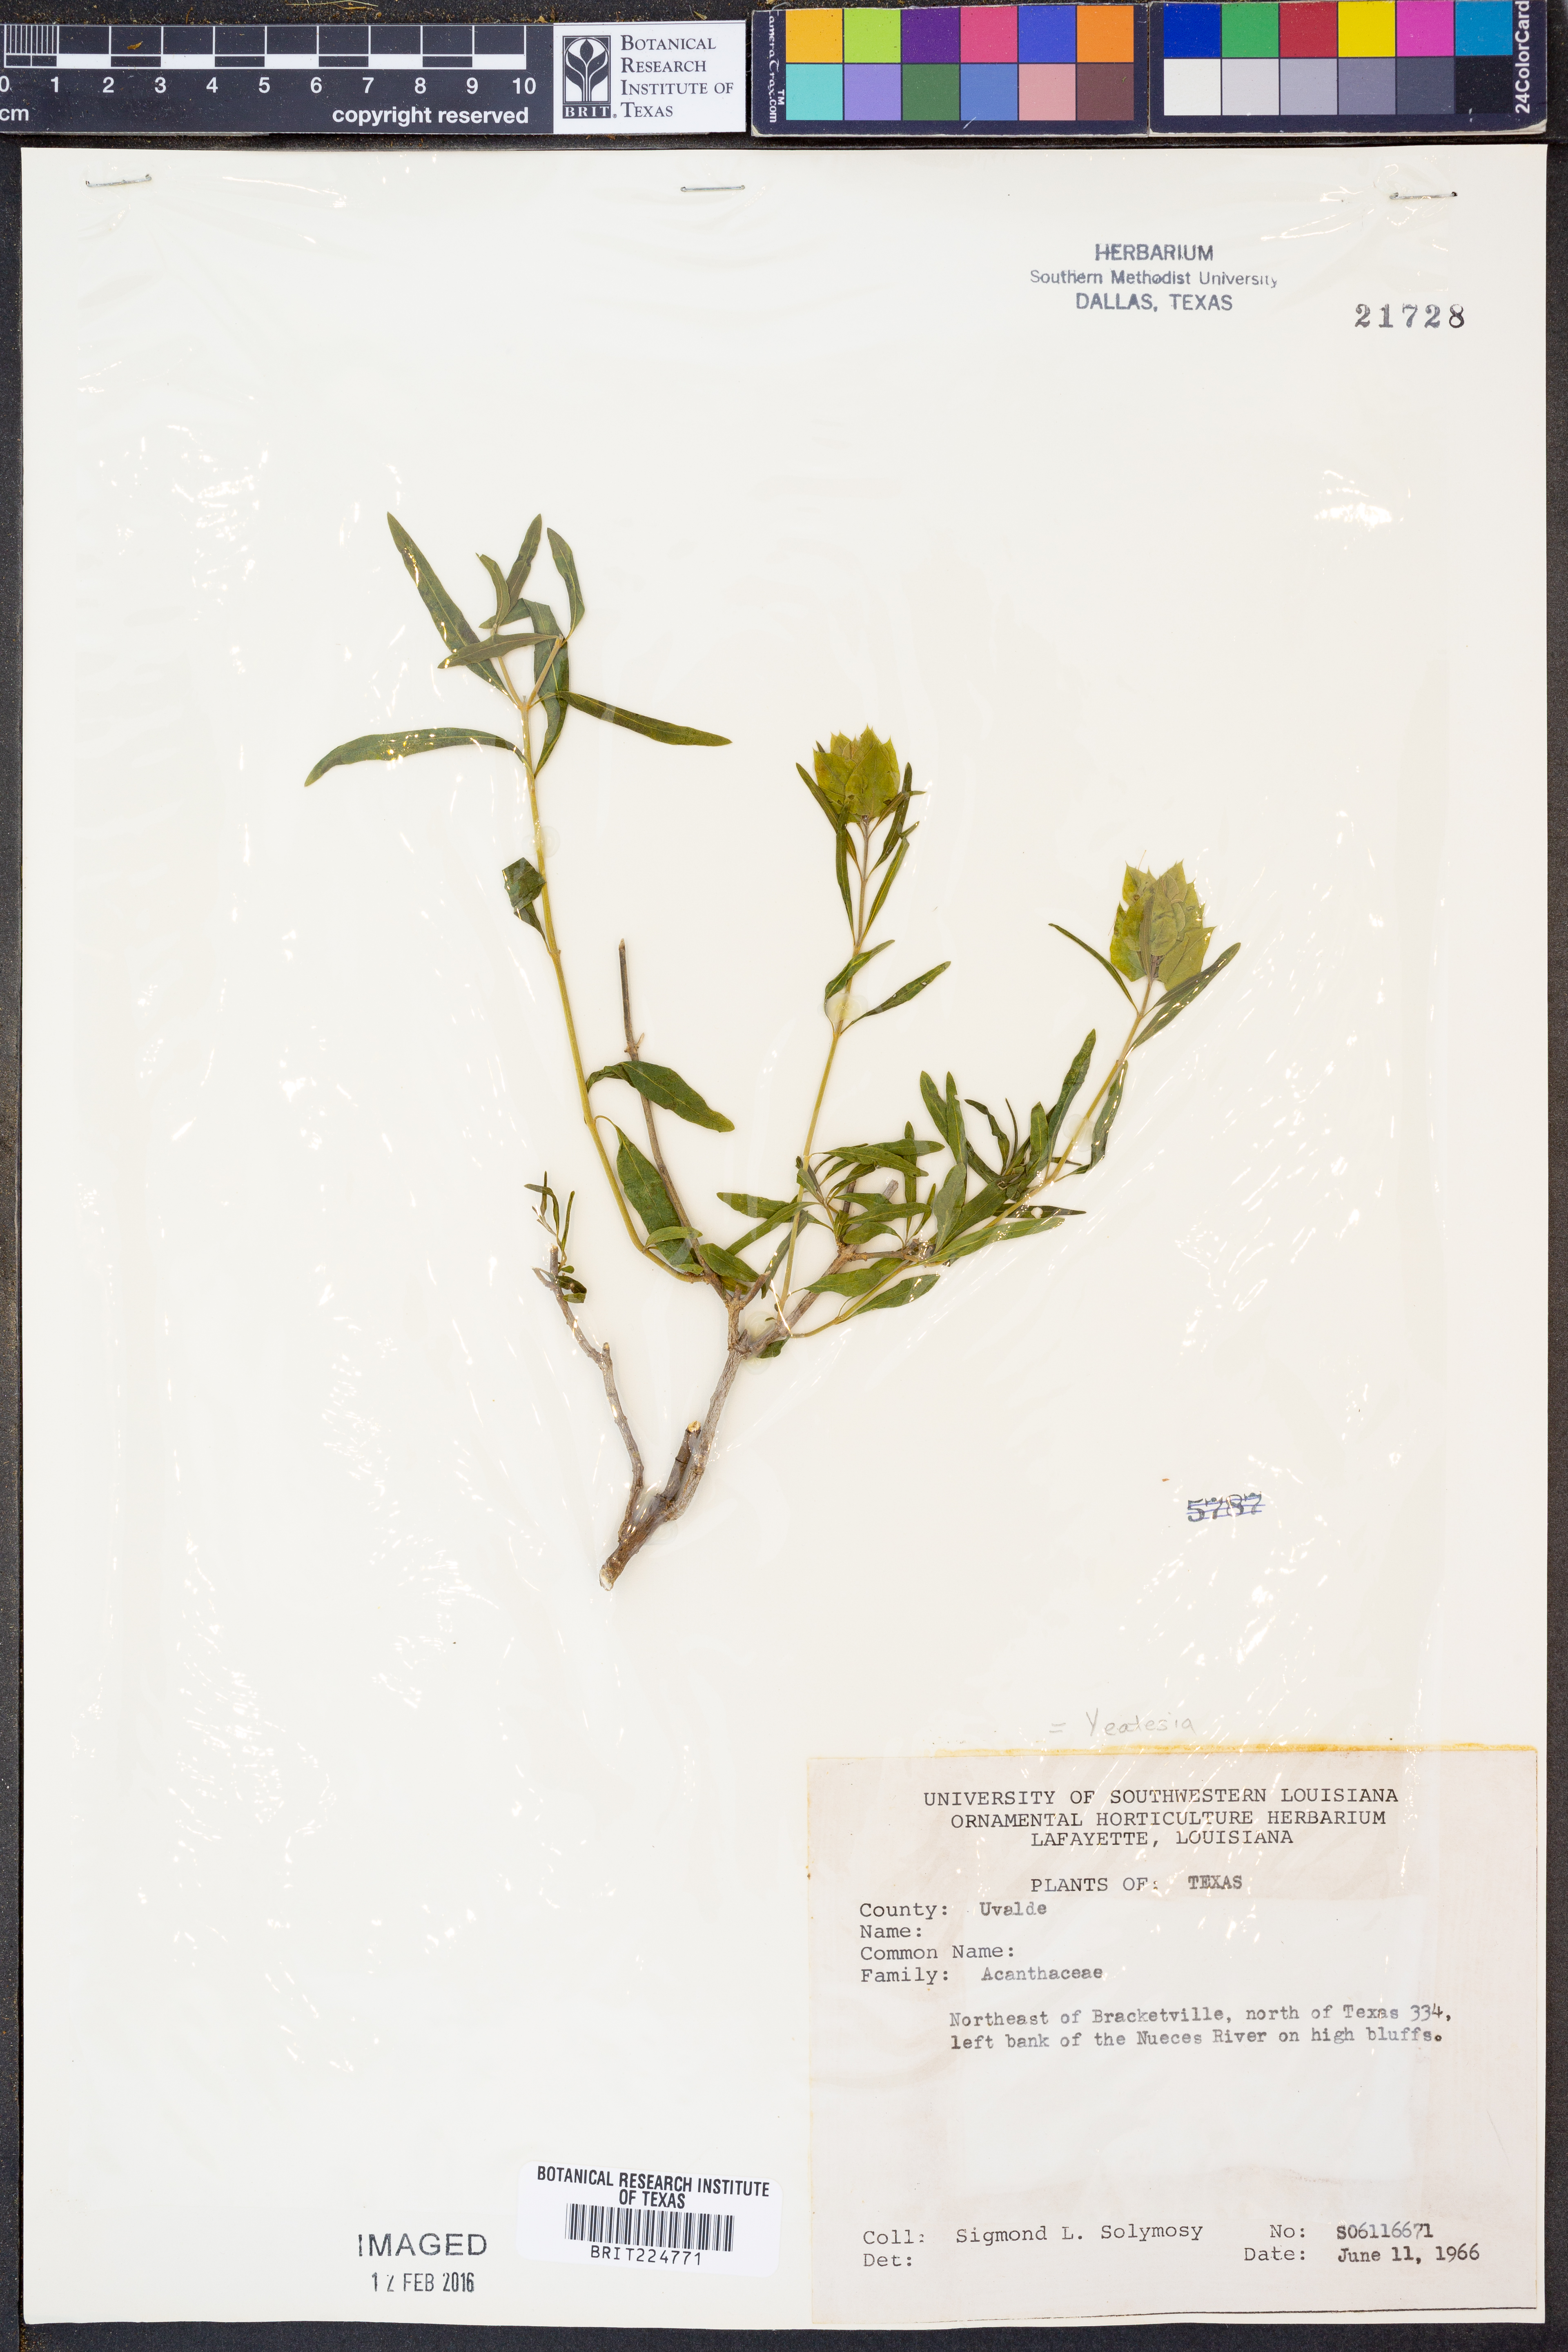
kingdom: Plantae
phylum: Tracheophyta
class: Magnoliopsida
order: Lamiales
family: Acanthaceae
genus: Yeatesia
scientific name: Yeatesia
